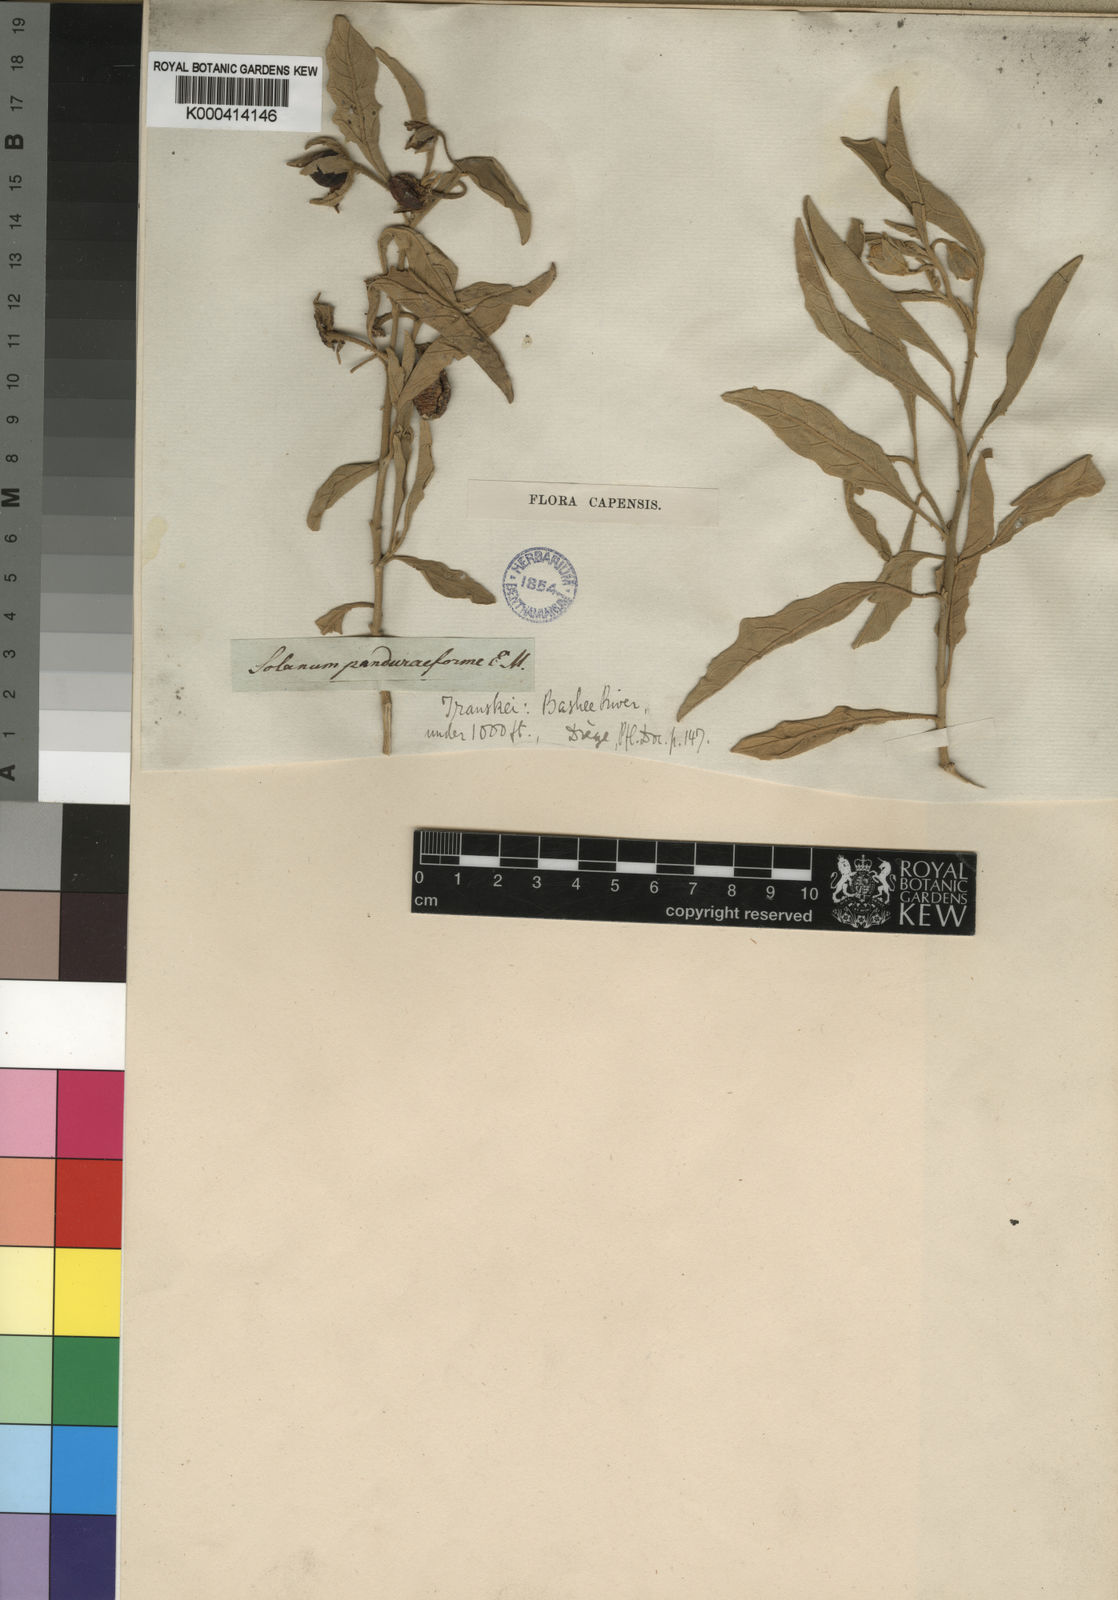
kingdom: Plantae
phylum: Tracheophyta
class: Magnoliopsida
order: Solanales
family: Solanaceae
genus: Solanum
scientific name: Solanum campylacanthum
